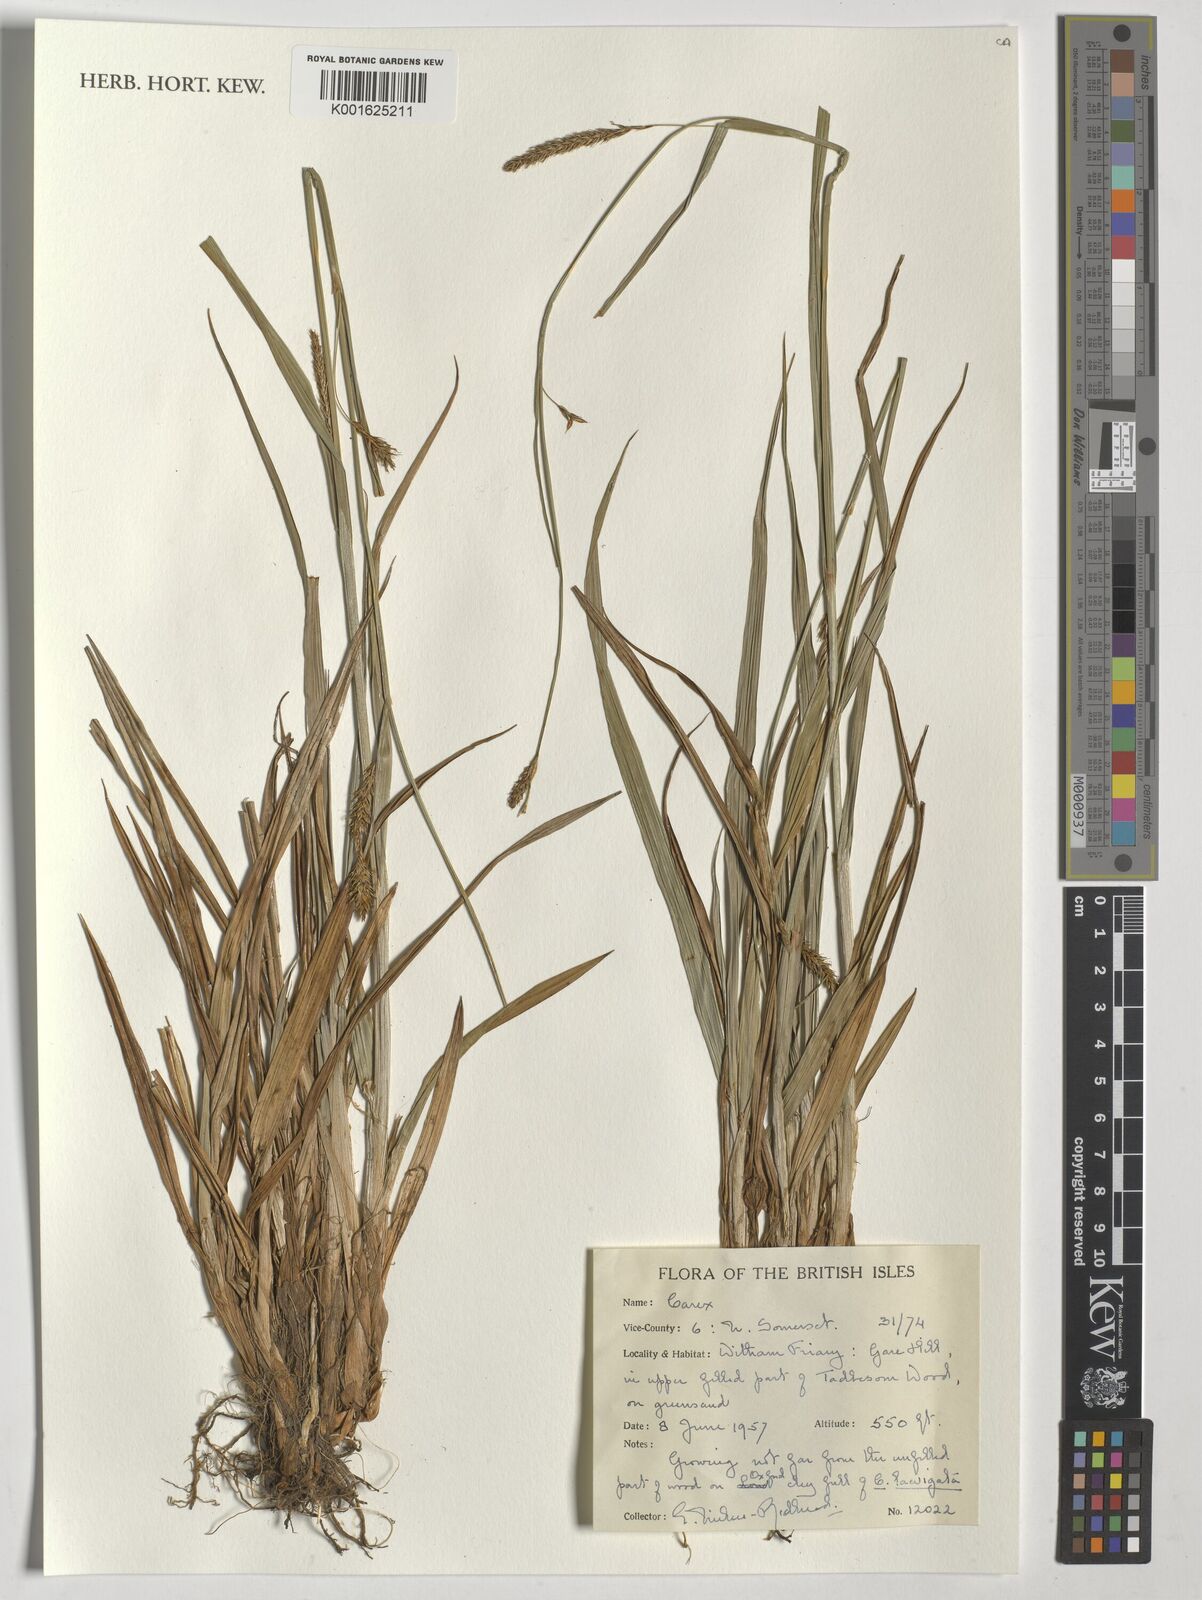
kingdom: Plantae
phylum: Tracheophyta
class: Liliopsida
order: Poales
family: Cyperaceae
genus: Carex
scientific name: Carex
